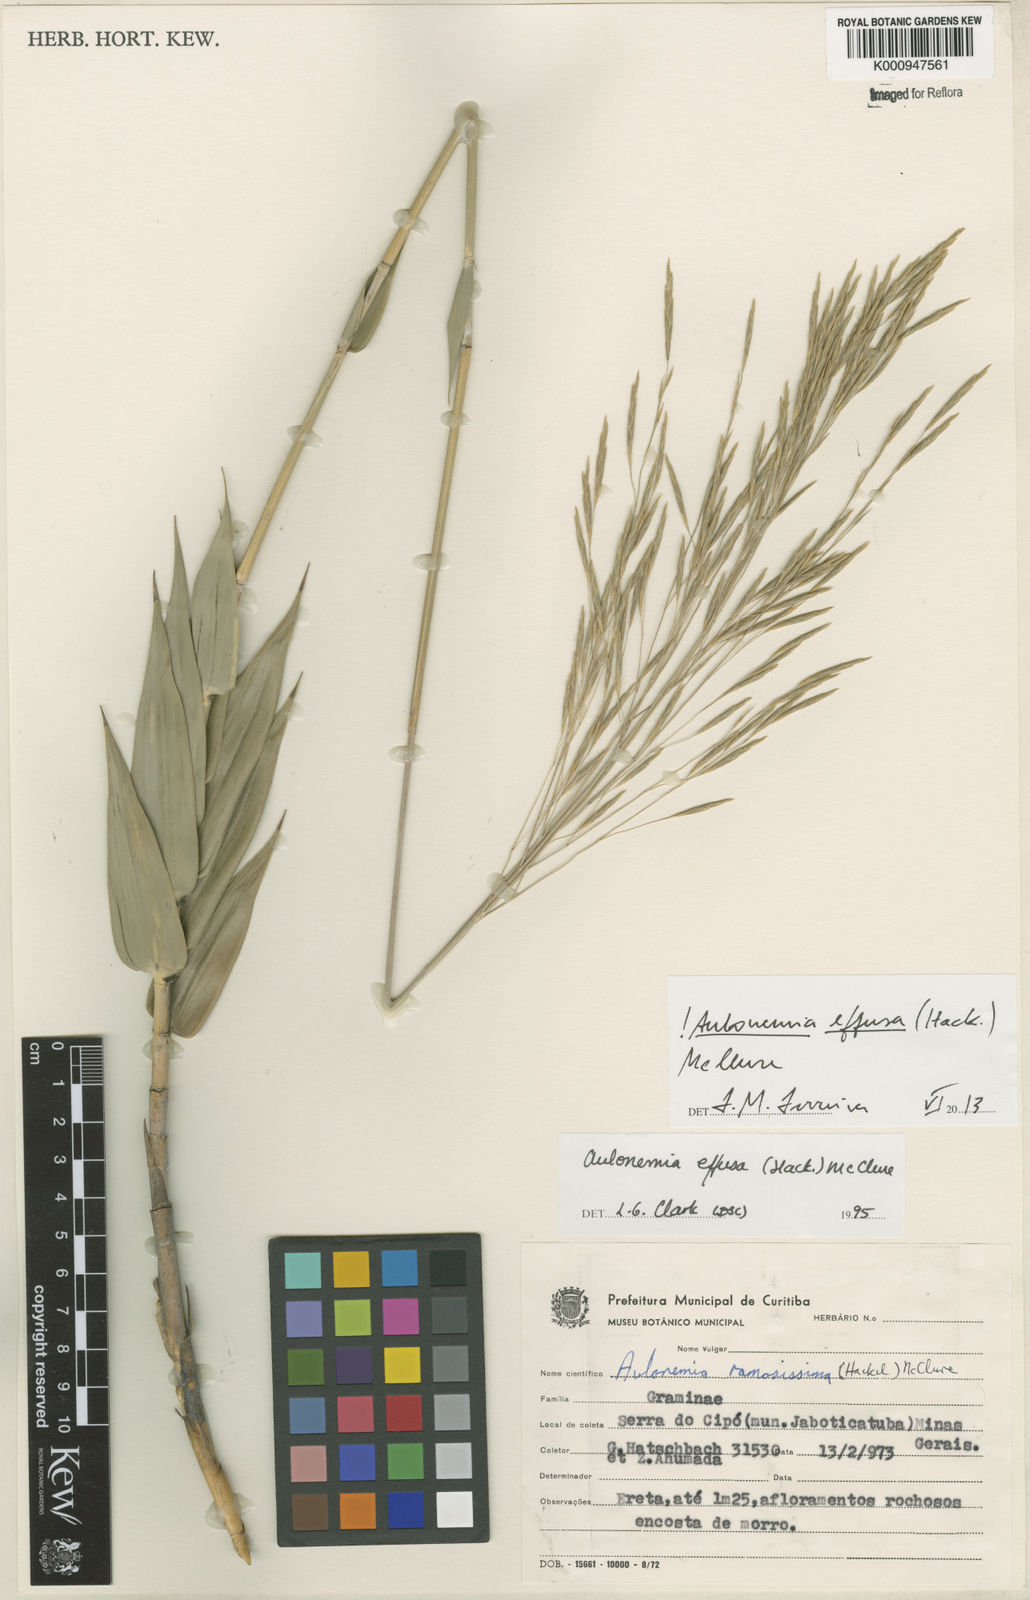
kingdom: Plantae
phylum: Tracheophyta
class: Liliopsida
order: Poales
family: Poaceae
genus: Aulonemia
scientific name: Aulonemia effusa
